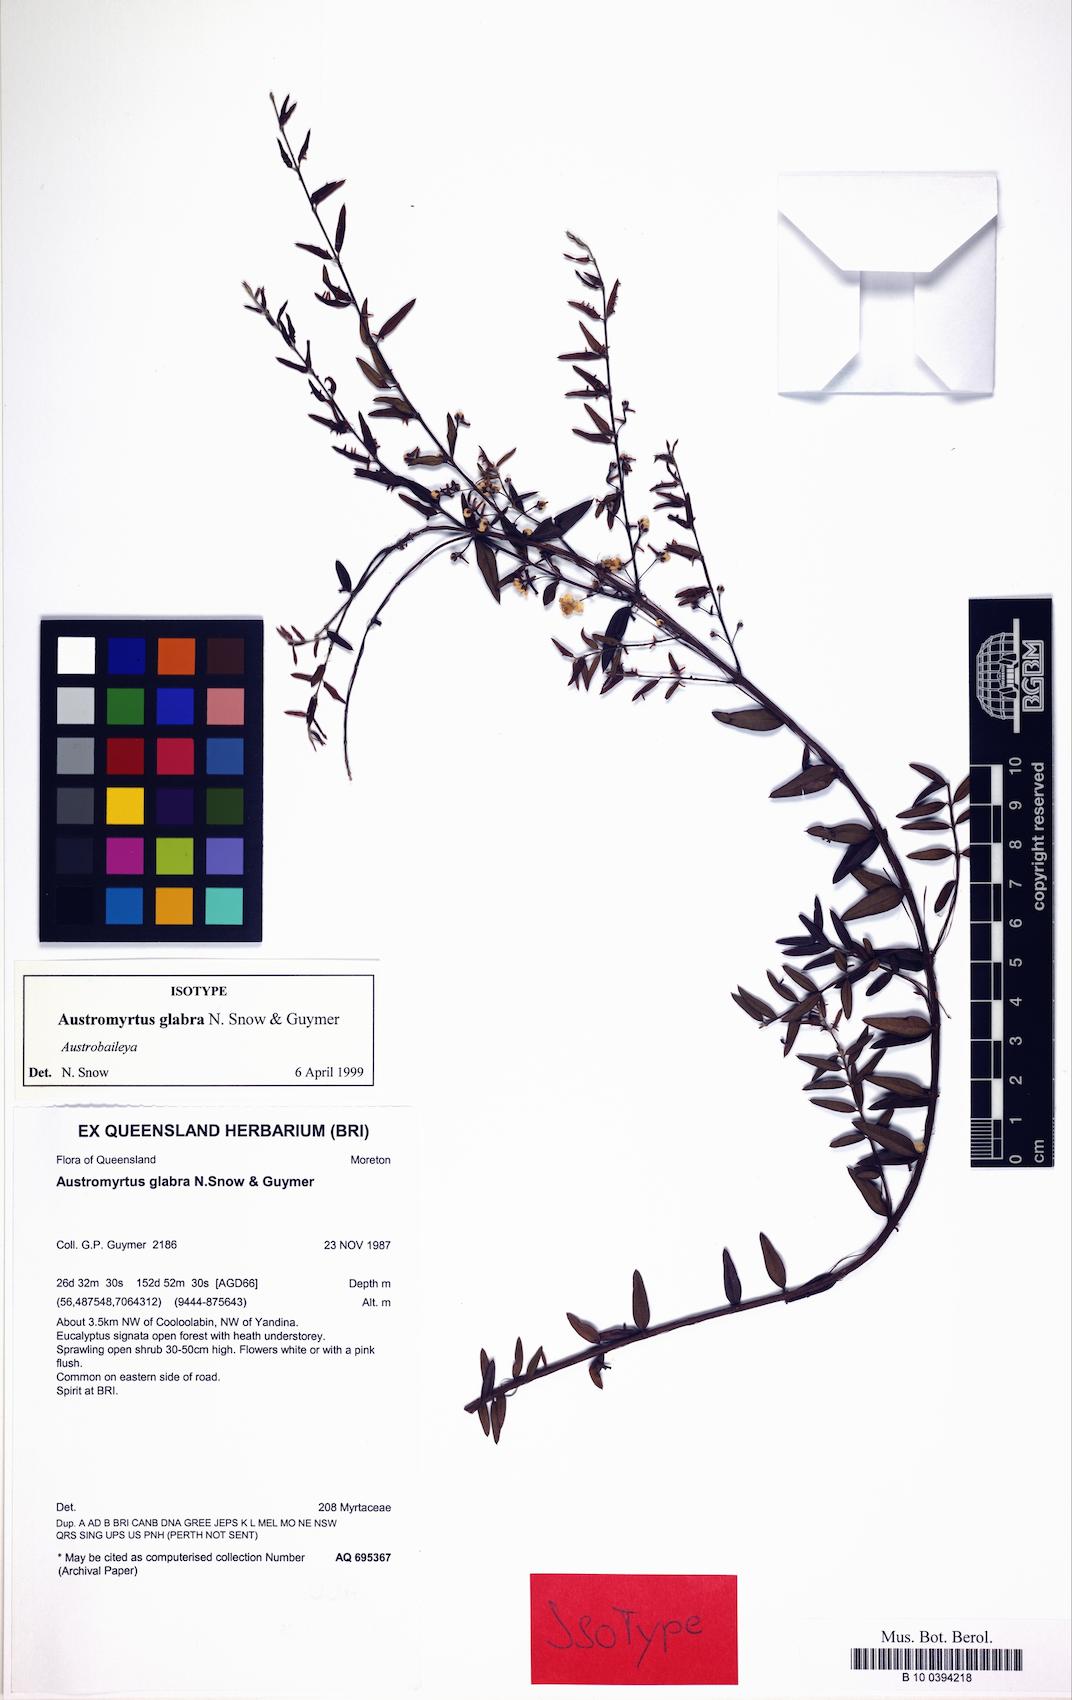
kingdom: Plantae
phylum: Tracheophyta
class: Magnoliopsida
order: Myrtales
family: Myrtaceae
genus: Austromyrtus
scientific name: Austromyrtus glabra
